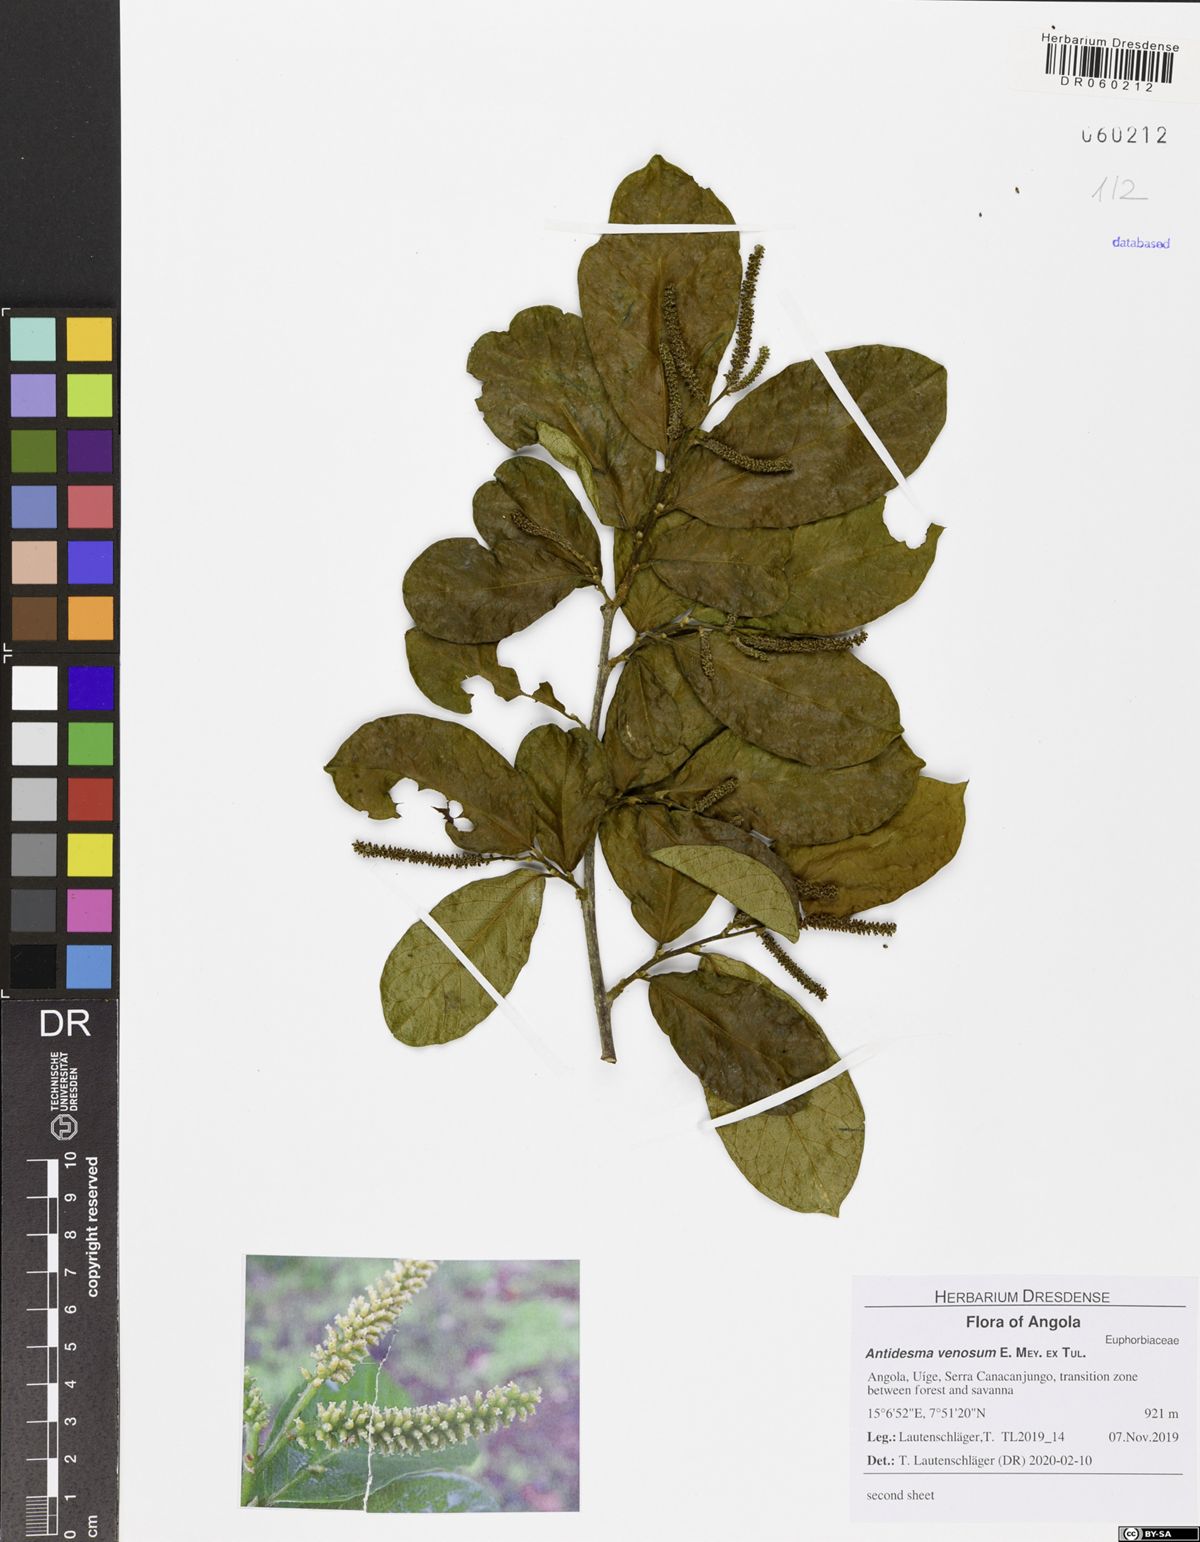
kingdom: Plantae
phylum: Tracheophyta
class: Magnoliopsida
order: Malpighiales
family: Phyllanthaceae
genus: Antidesma
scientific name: Antidesma venosum
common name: Tassel-berry
